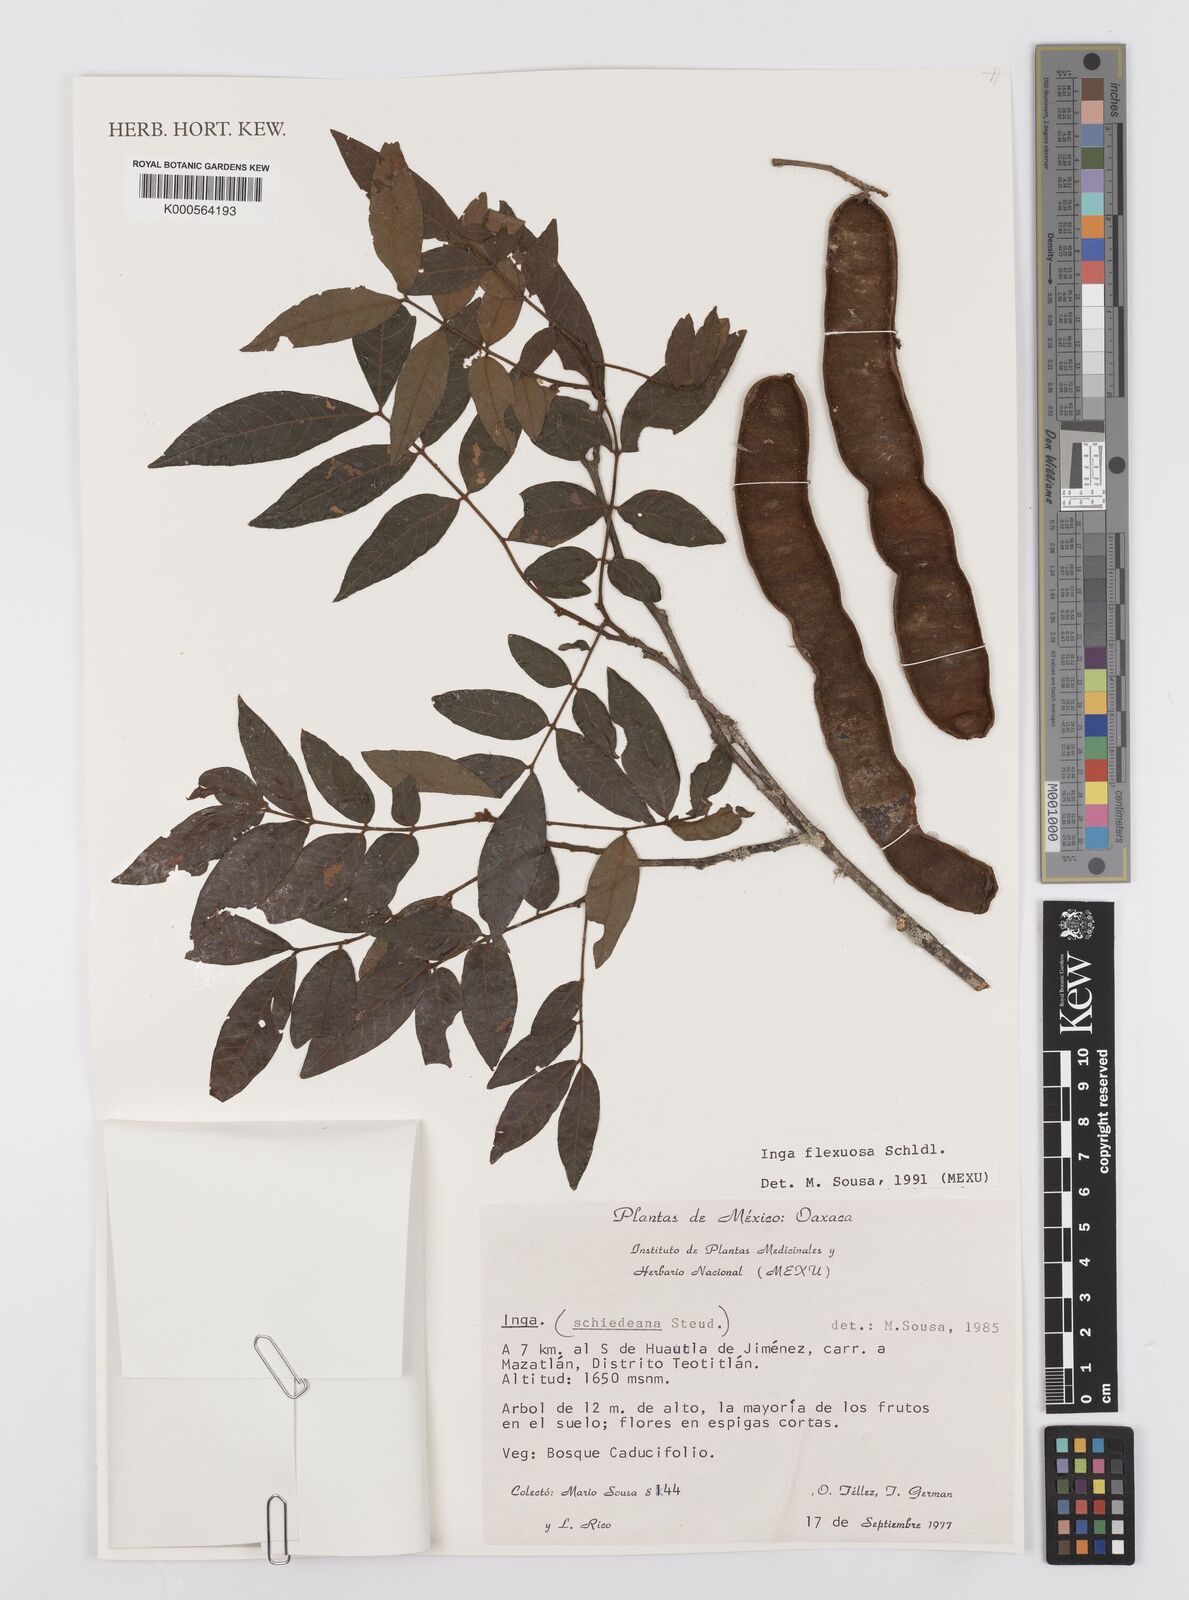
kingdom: Plantae
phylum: Tracheophyta
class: Magnoliopsida
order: Fabales
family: Fabaceae
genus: Inga
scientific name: Inga flexuosa
